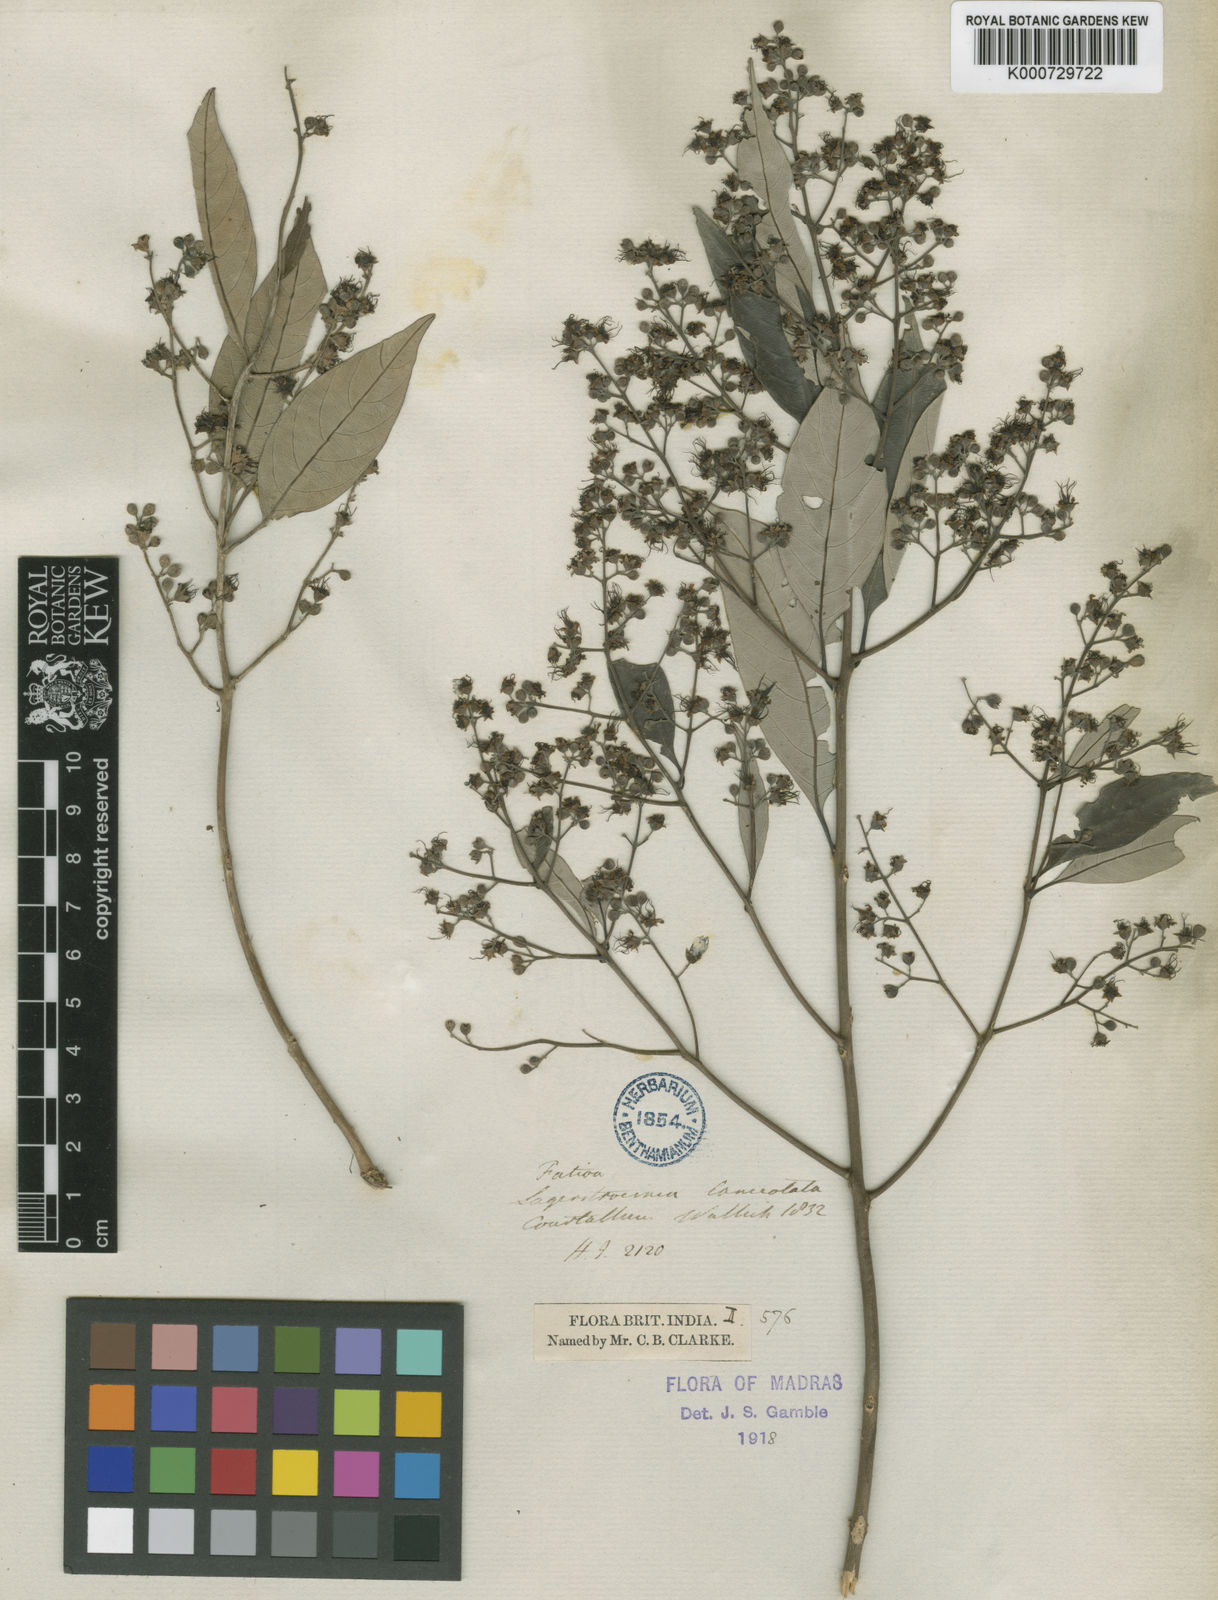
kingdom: Plantae
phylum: Tracheophyta
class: Magnoliopsida
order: Myrtales
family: Lythraceae
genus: Lagerstroemia
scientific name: Lagerstroemia subcostata
